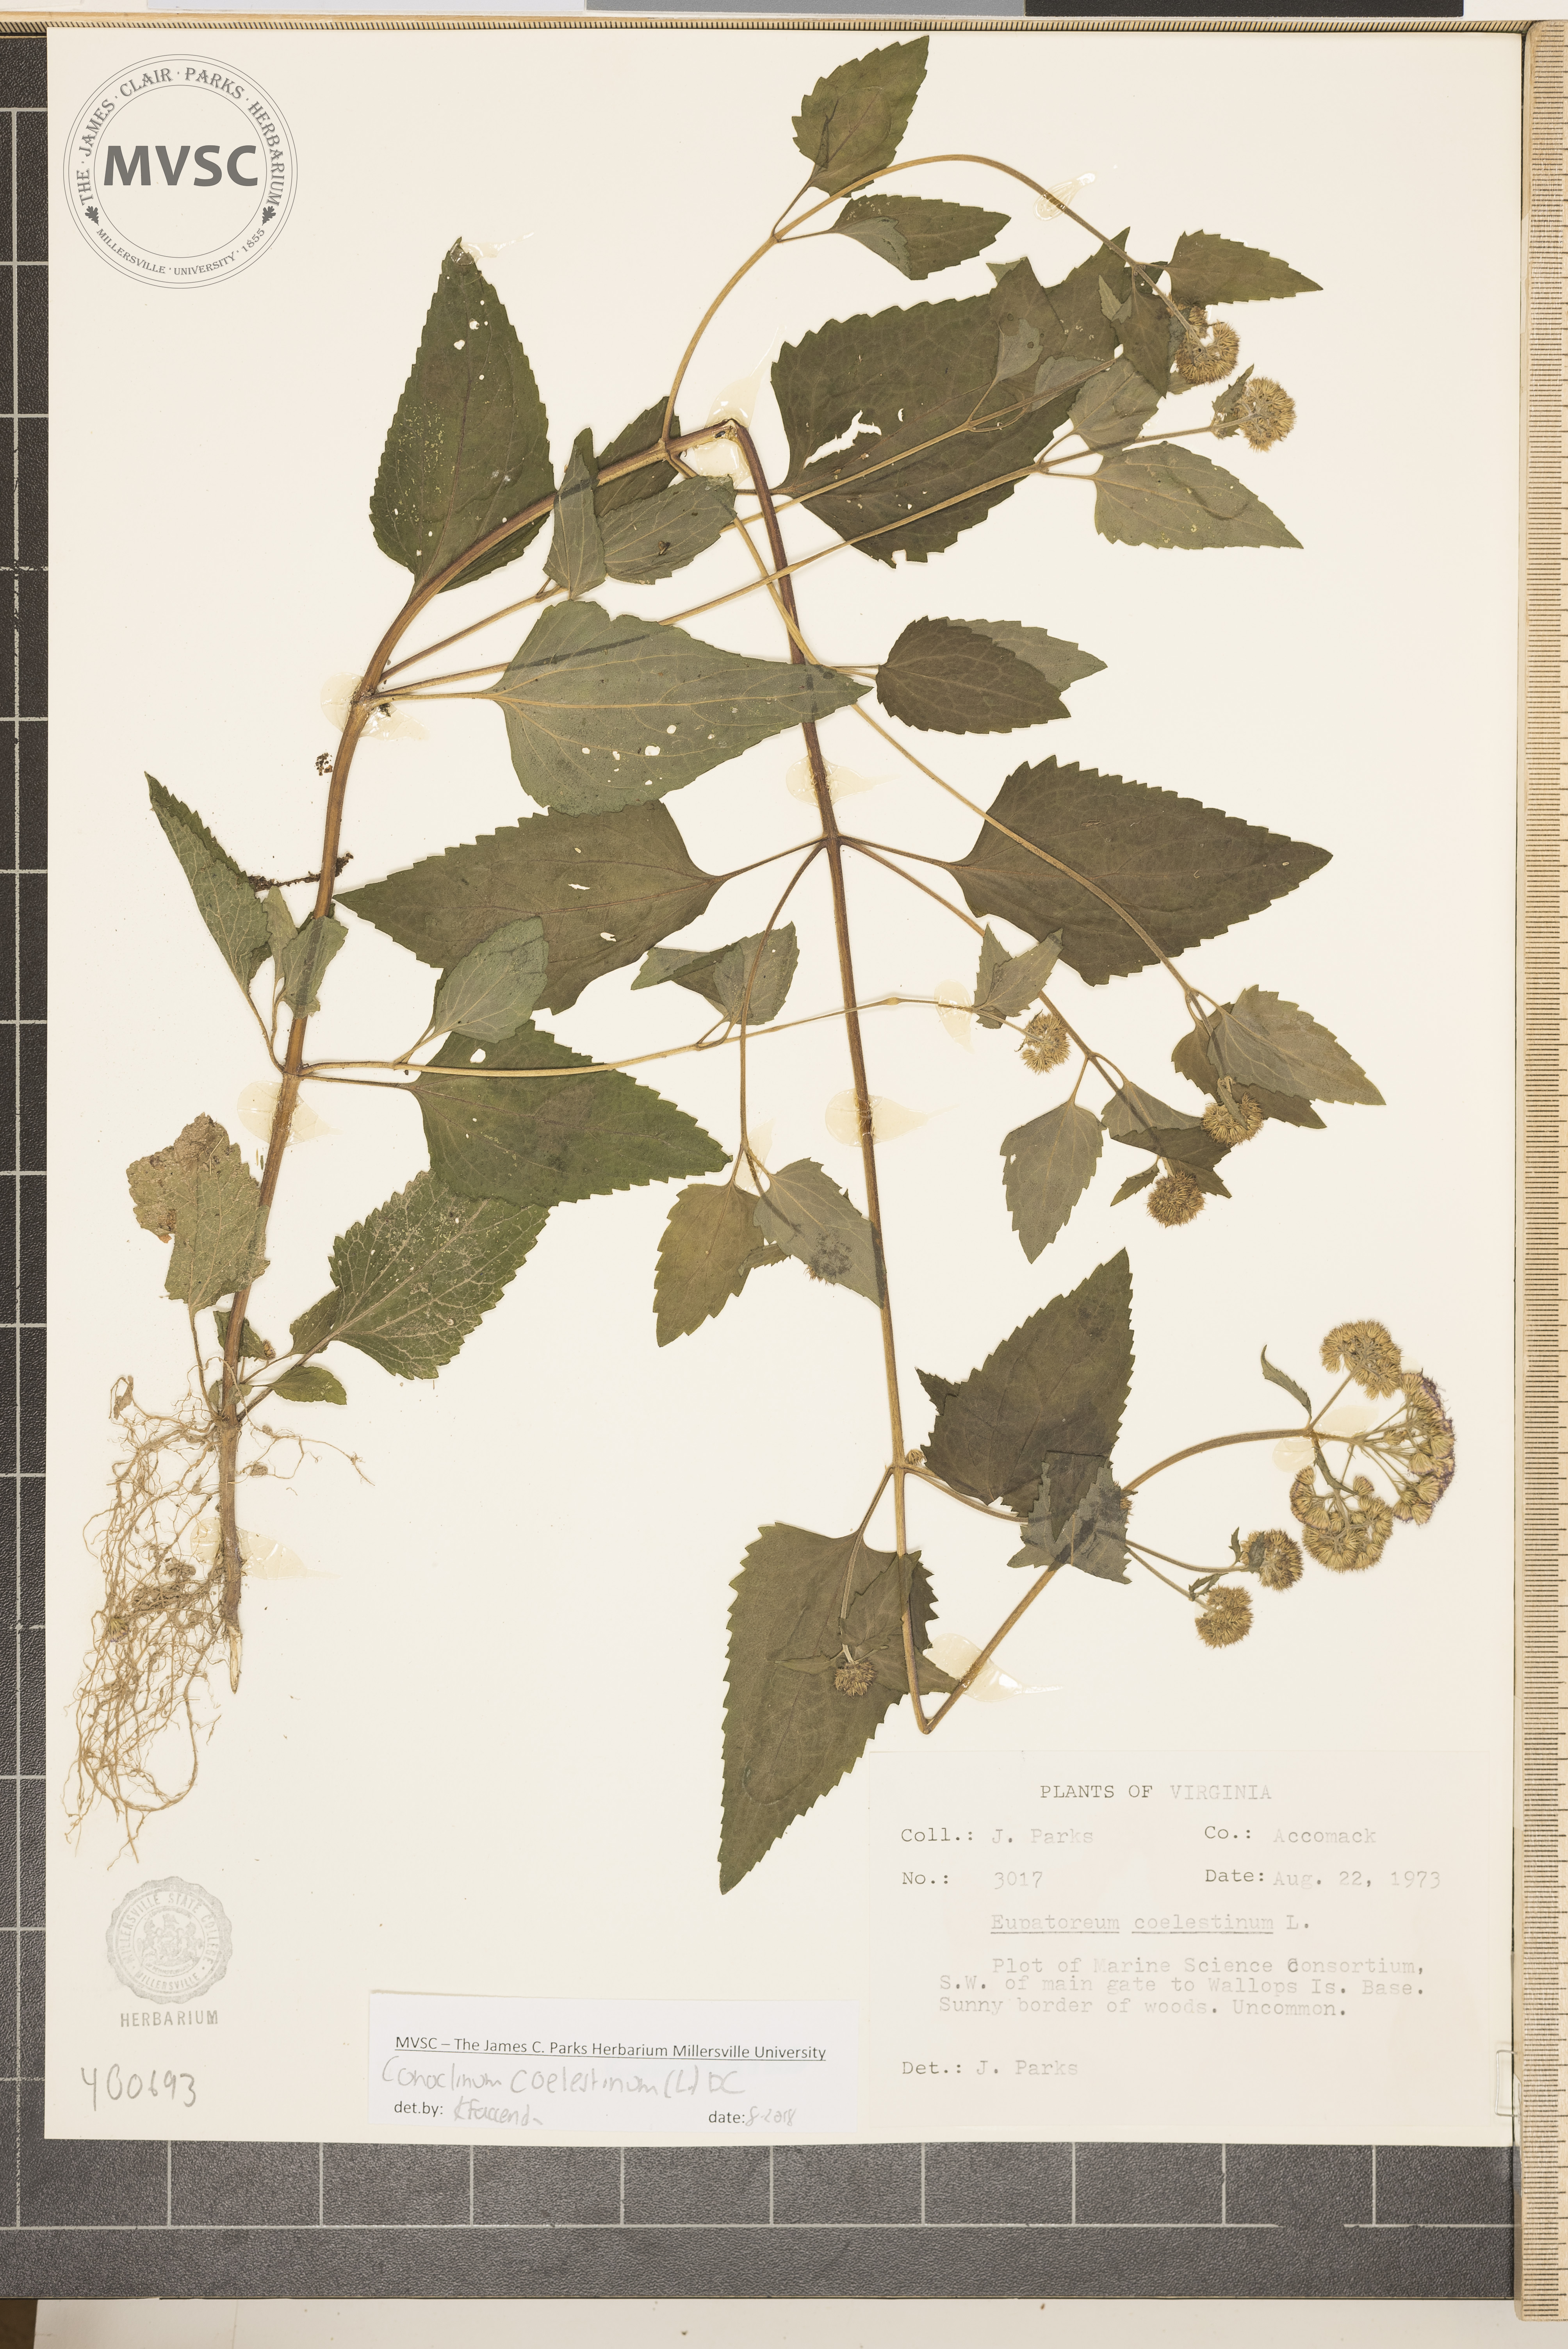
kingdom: Plantae
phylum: Tracheophyta
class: Magnoliopsida
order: Asterales
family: Asteraceae
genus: Conoclinium
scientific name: Conoclinium coelestinum
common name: Blue mistflower
